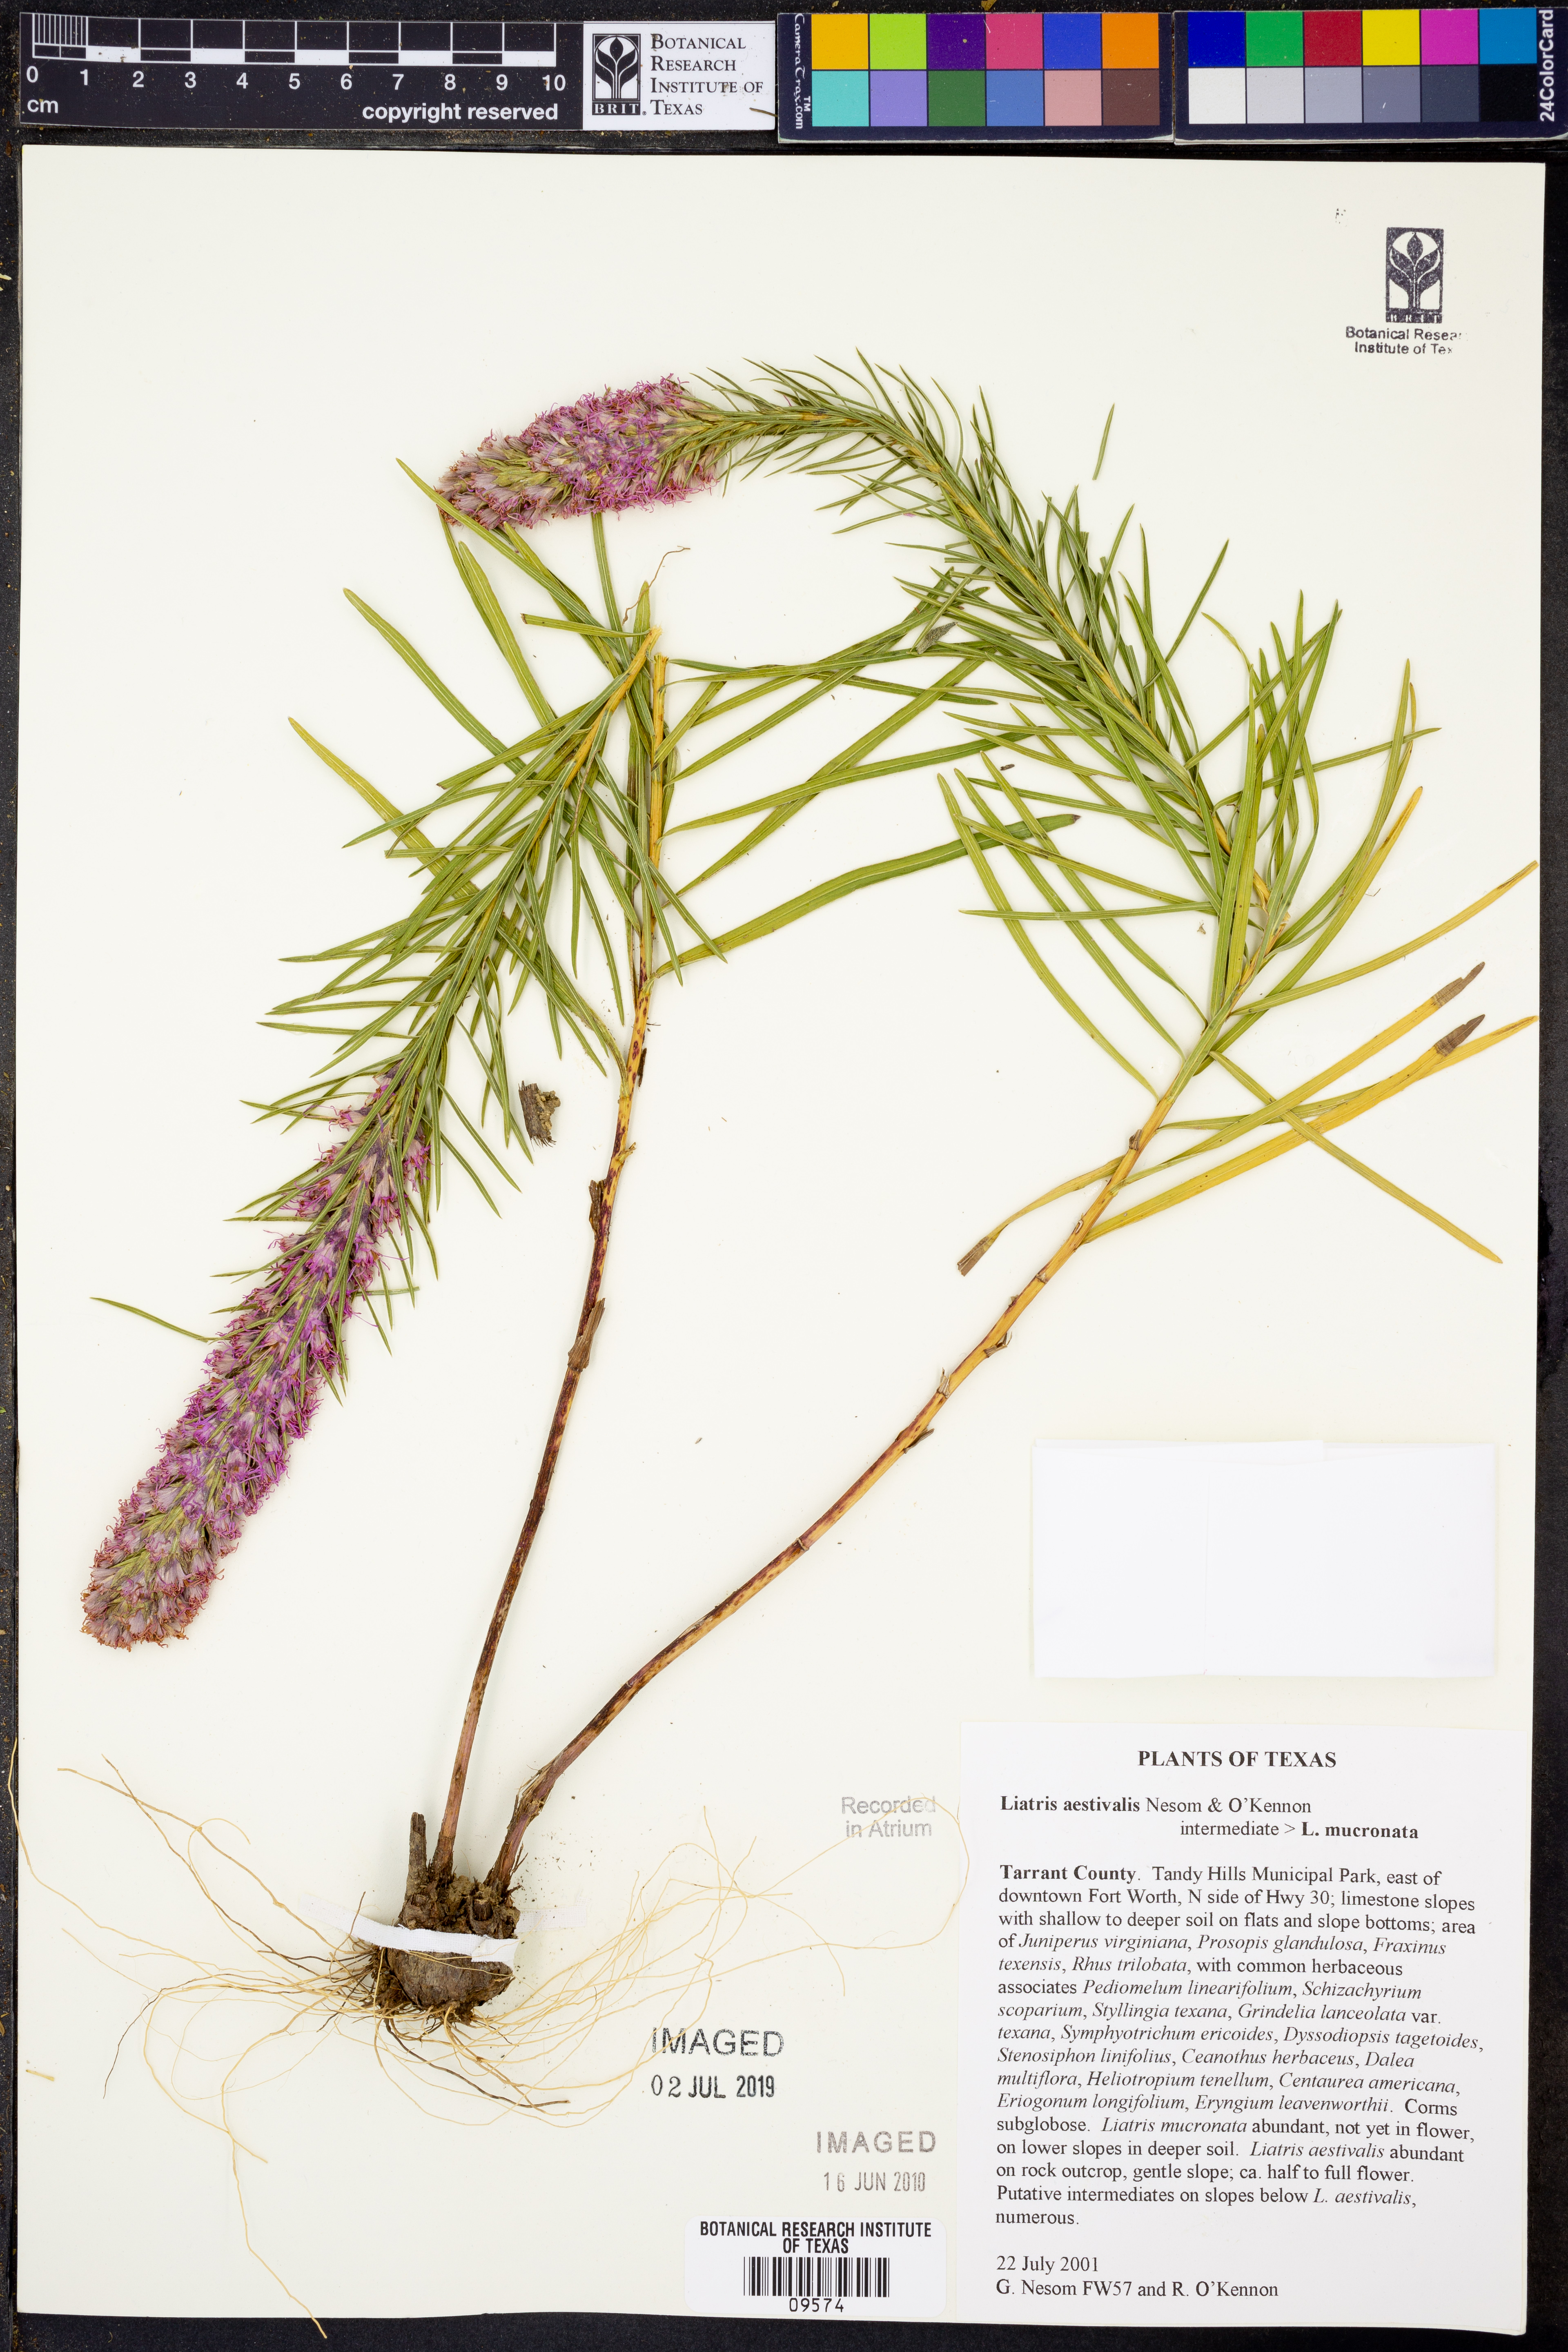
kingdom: Plantae
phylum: Tracheophyta
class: Magnoliopsida
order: Asterales
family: Asteraceae
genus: Liatris
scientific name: Liatris aestivalis
